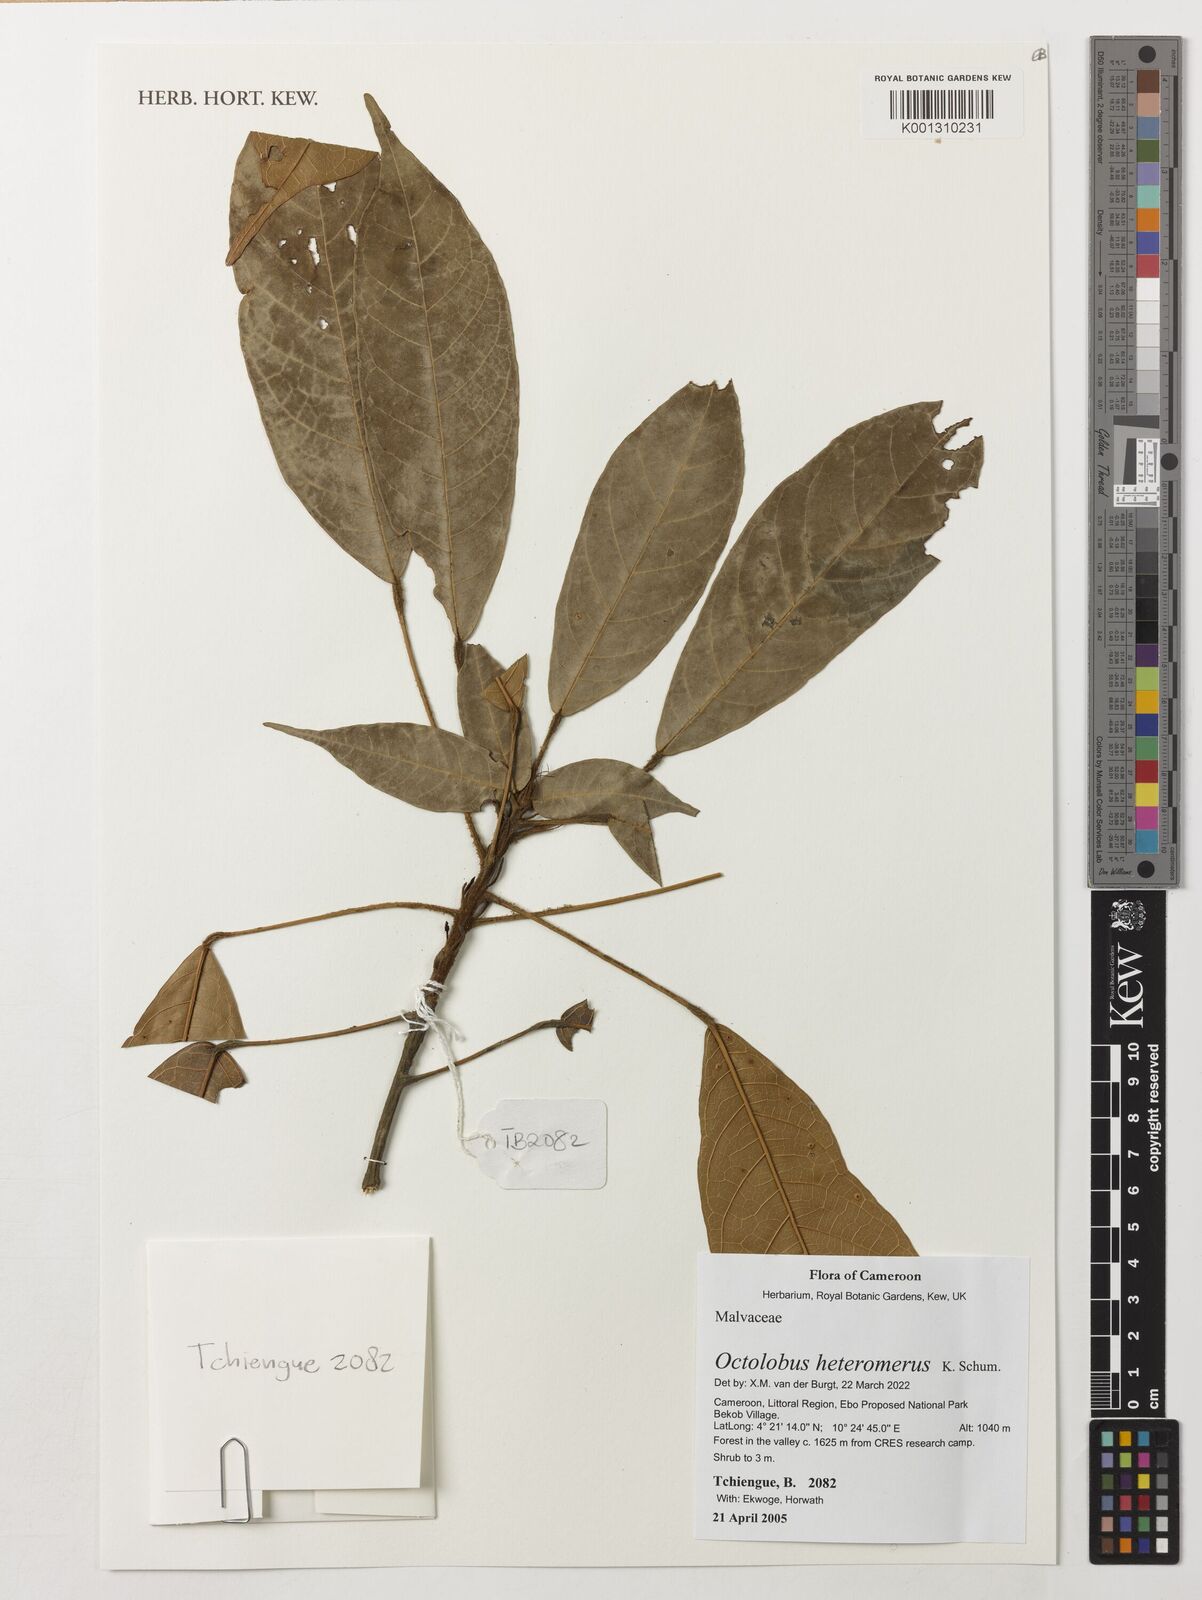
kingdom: Plantae
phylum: Tracheophyta
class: Magnoliopsida
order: Malvales
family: Malvaceae
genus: Octolobus
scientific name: Octolobus heteromerus
